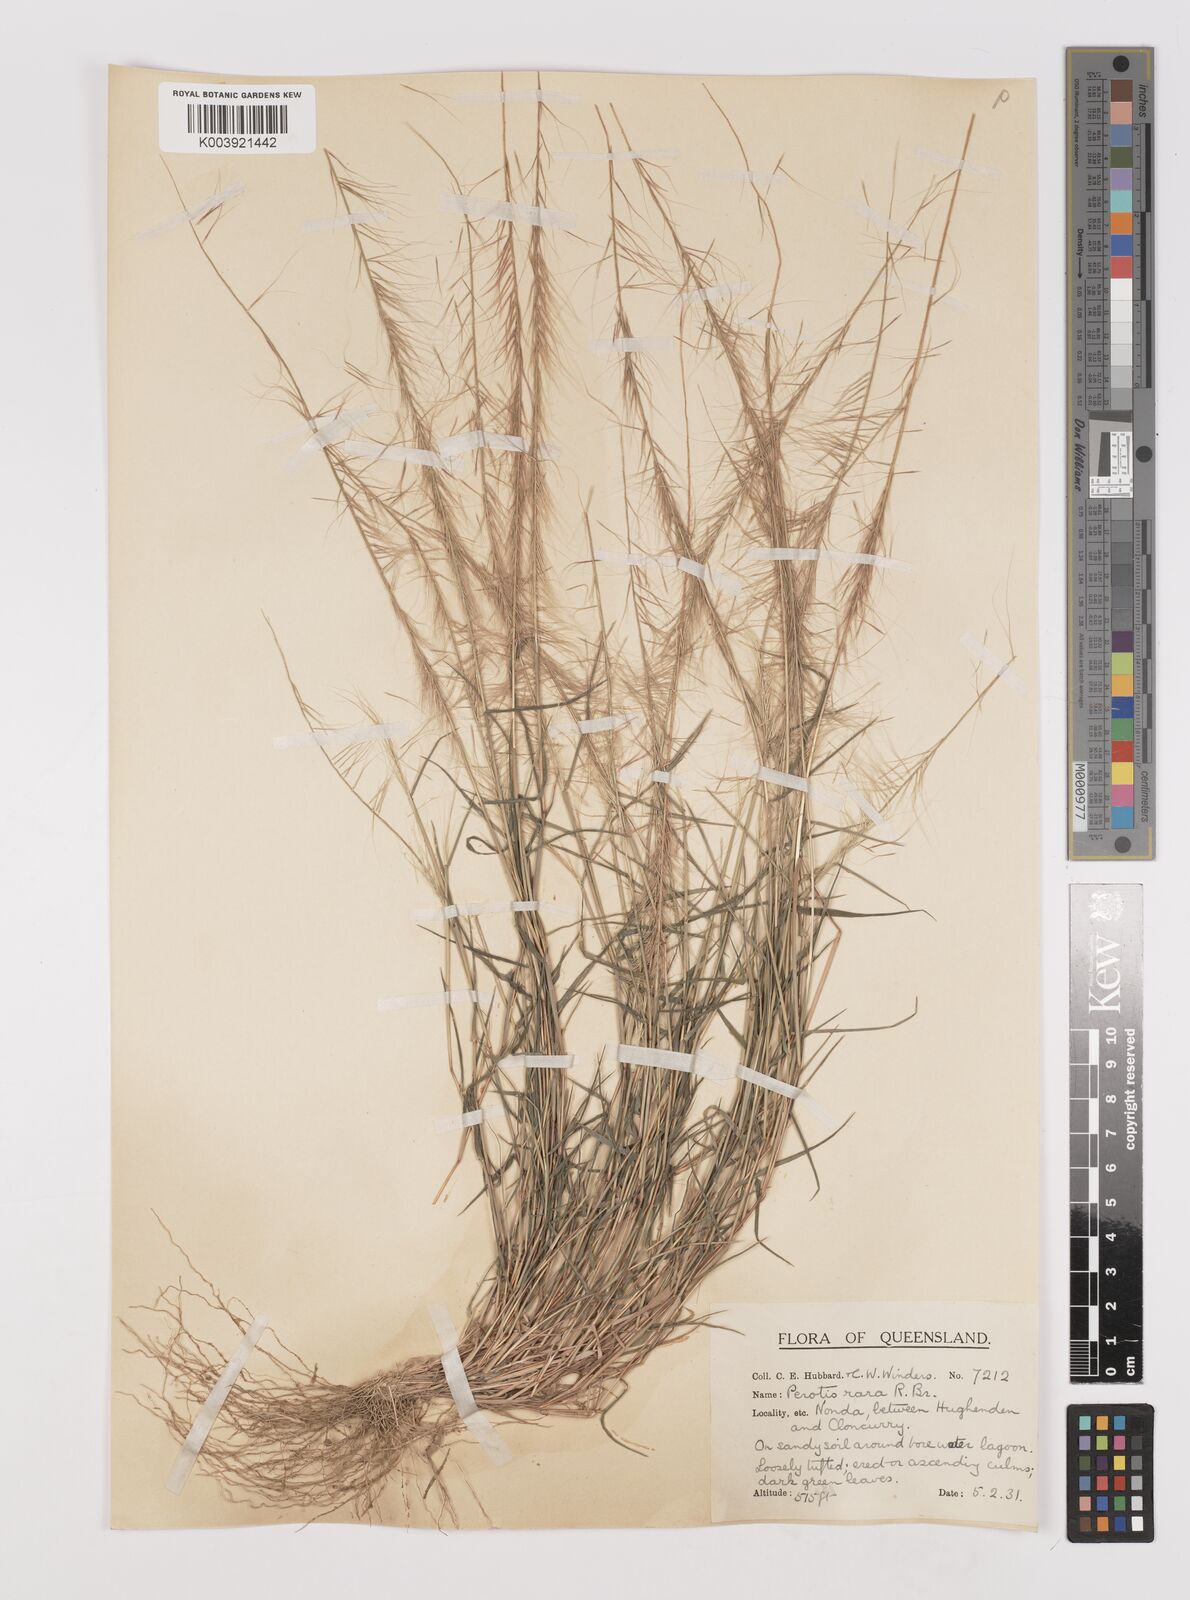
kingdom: Plantae
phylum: Tracheophyta
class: Liliopsida
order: Poales
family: Poaceae
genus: Perotis
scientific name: Perotis rara
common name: Comet grass
